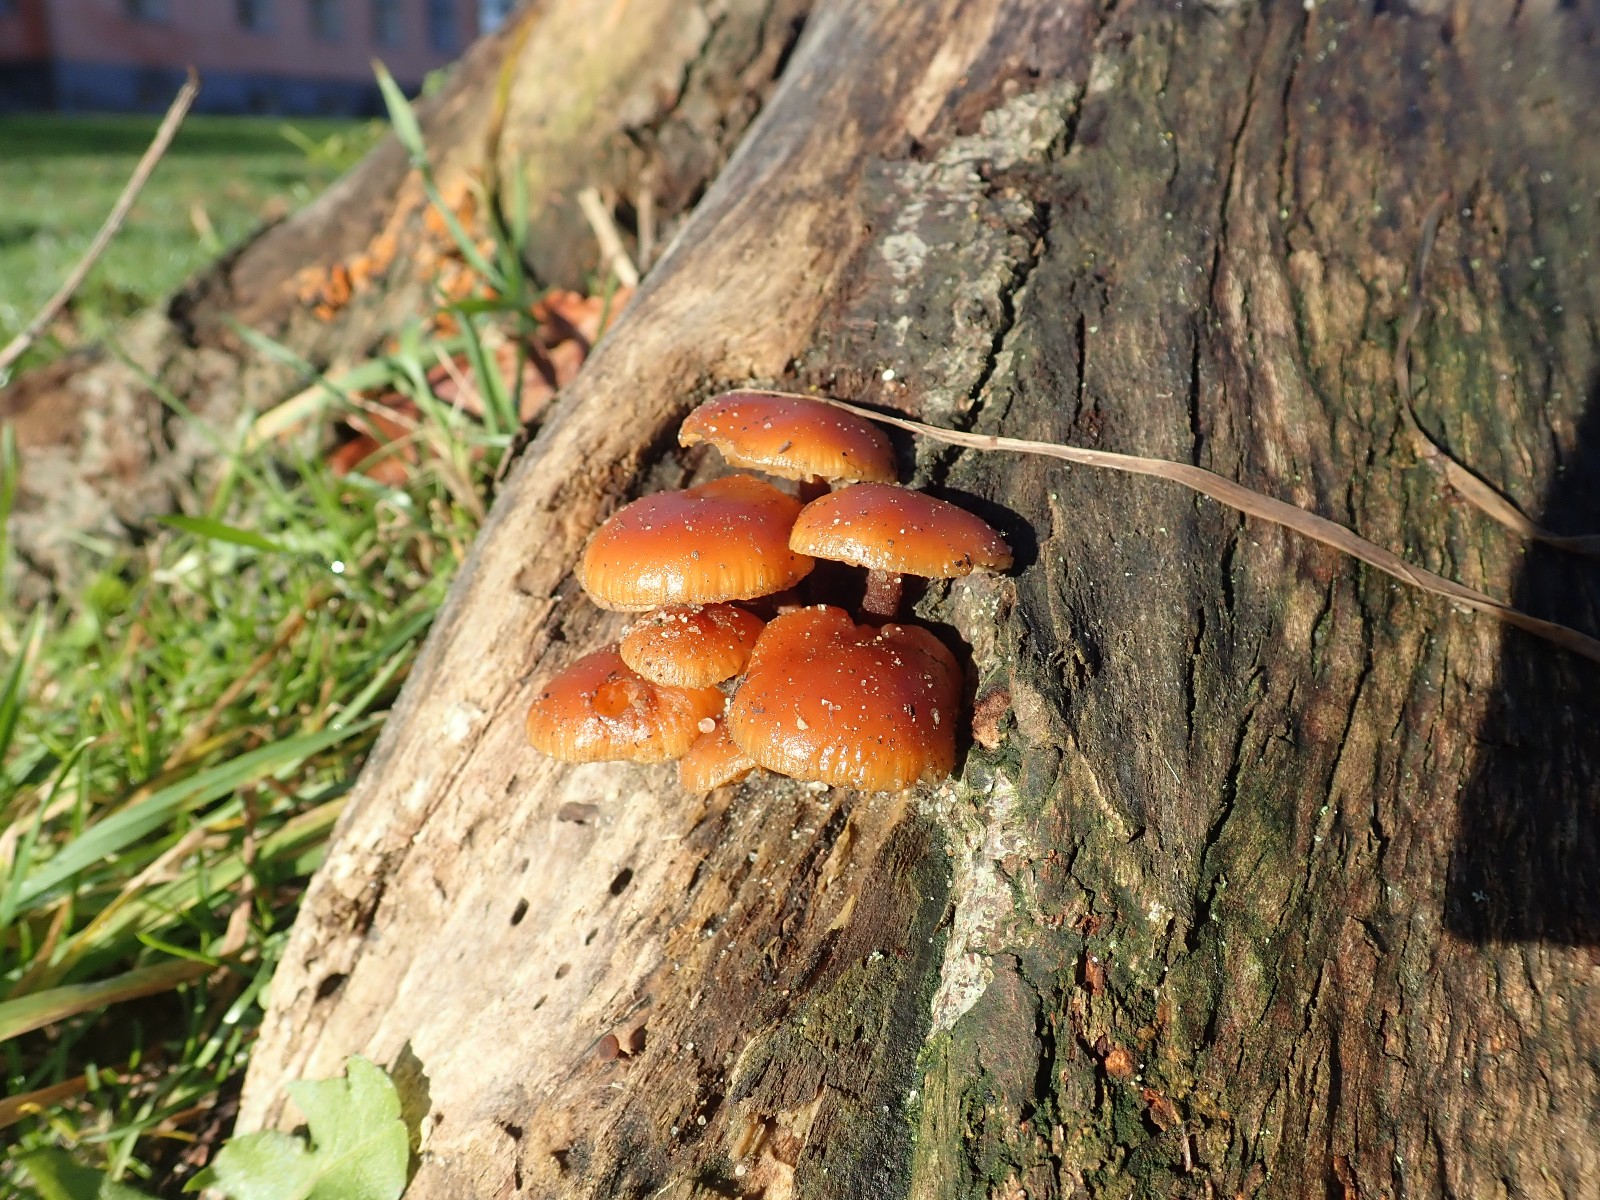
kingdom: Fungi
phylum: Basidiomycota
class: Agaricomycetes
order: Agaricales
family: Physalacriaceae
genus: Flammulina
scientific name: Flammulina velutipes
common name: gul fløjlsfod
